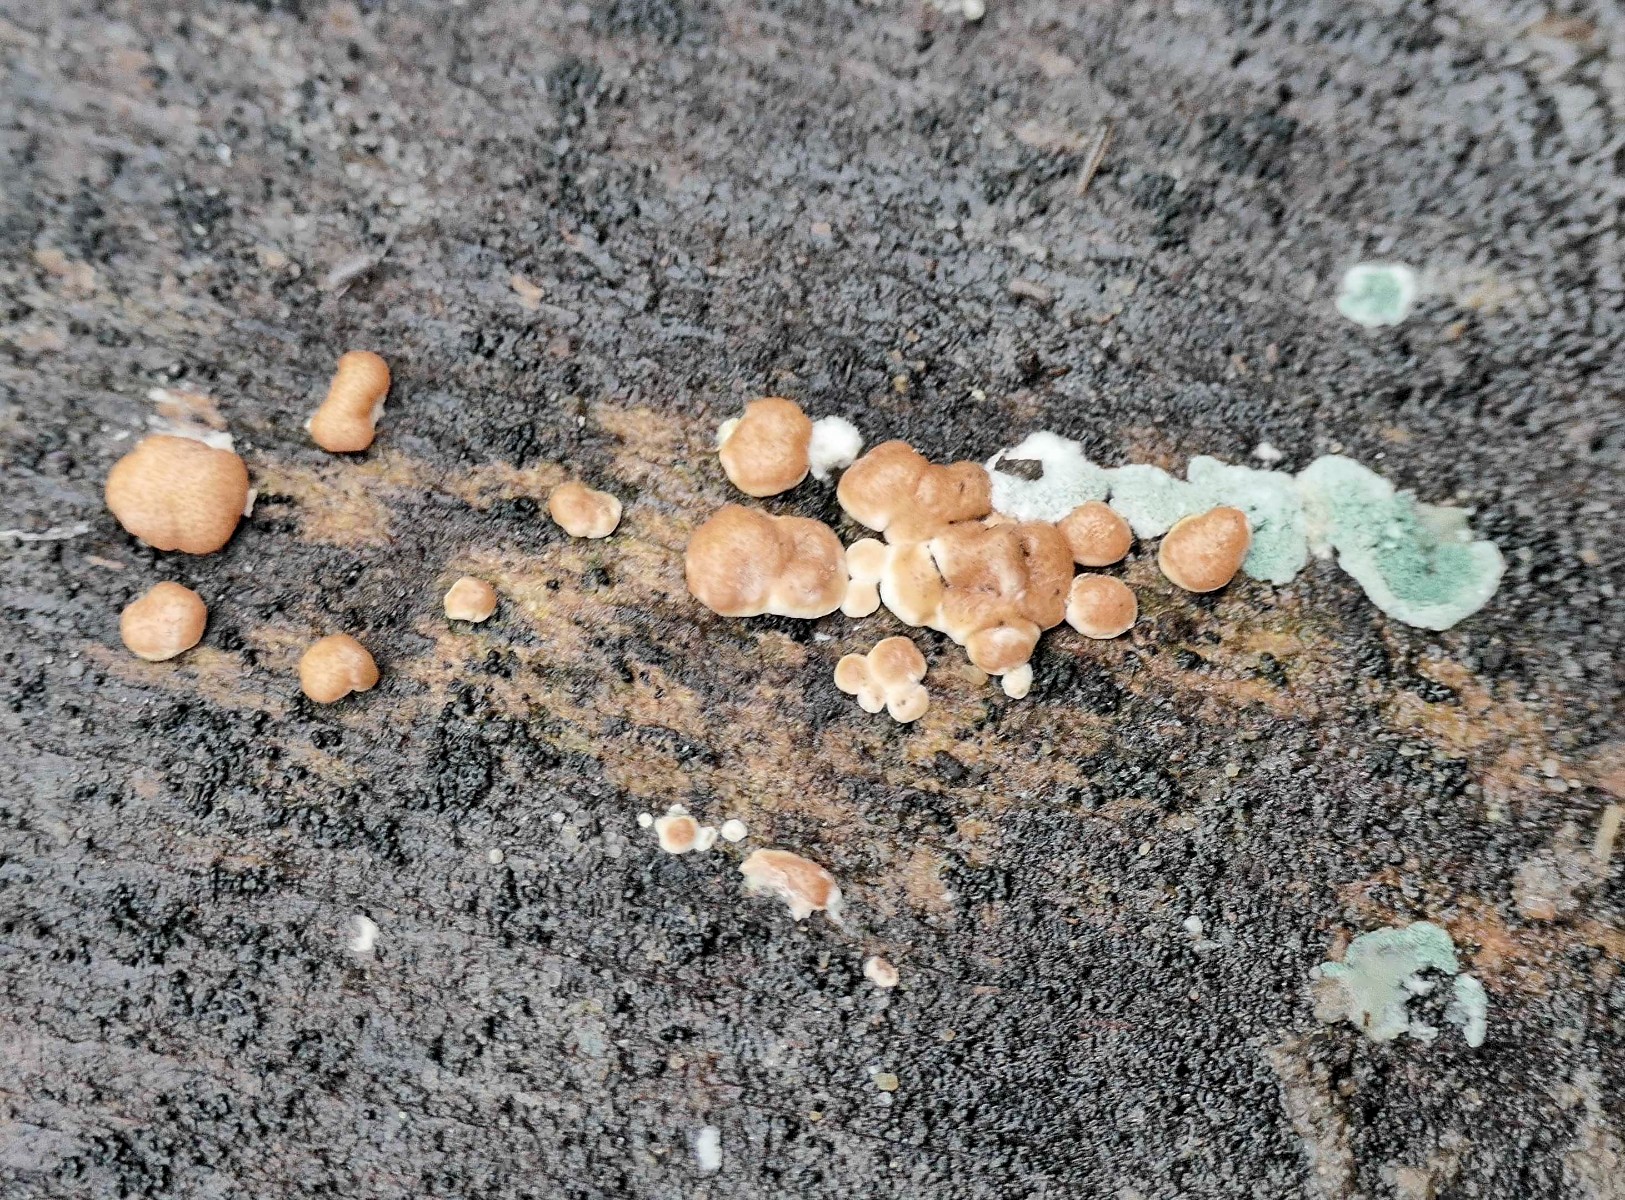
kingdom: Fungi
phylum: Ascomycota
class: Sordariomycetes
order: Hypocreales
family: Hypocreaceae
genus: Trichoderma
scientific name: Trichoderma europaeum
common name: rosabrun kødkerne
